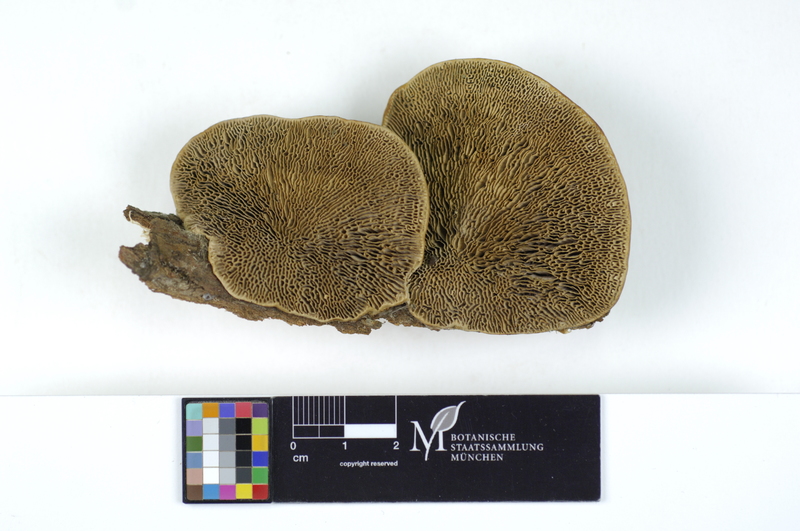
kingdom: Plantae
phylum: Tracheophyta
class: Magnoliopsida
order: Malpighiales
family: Salicaceae
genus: Salix
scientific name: Salix
